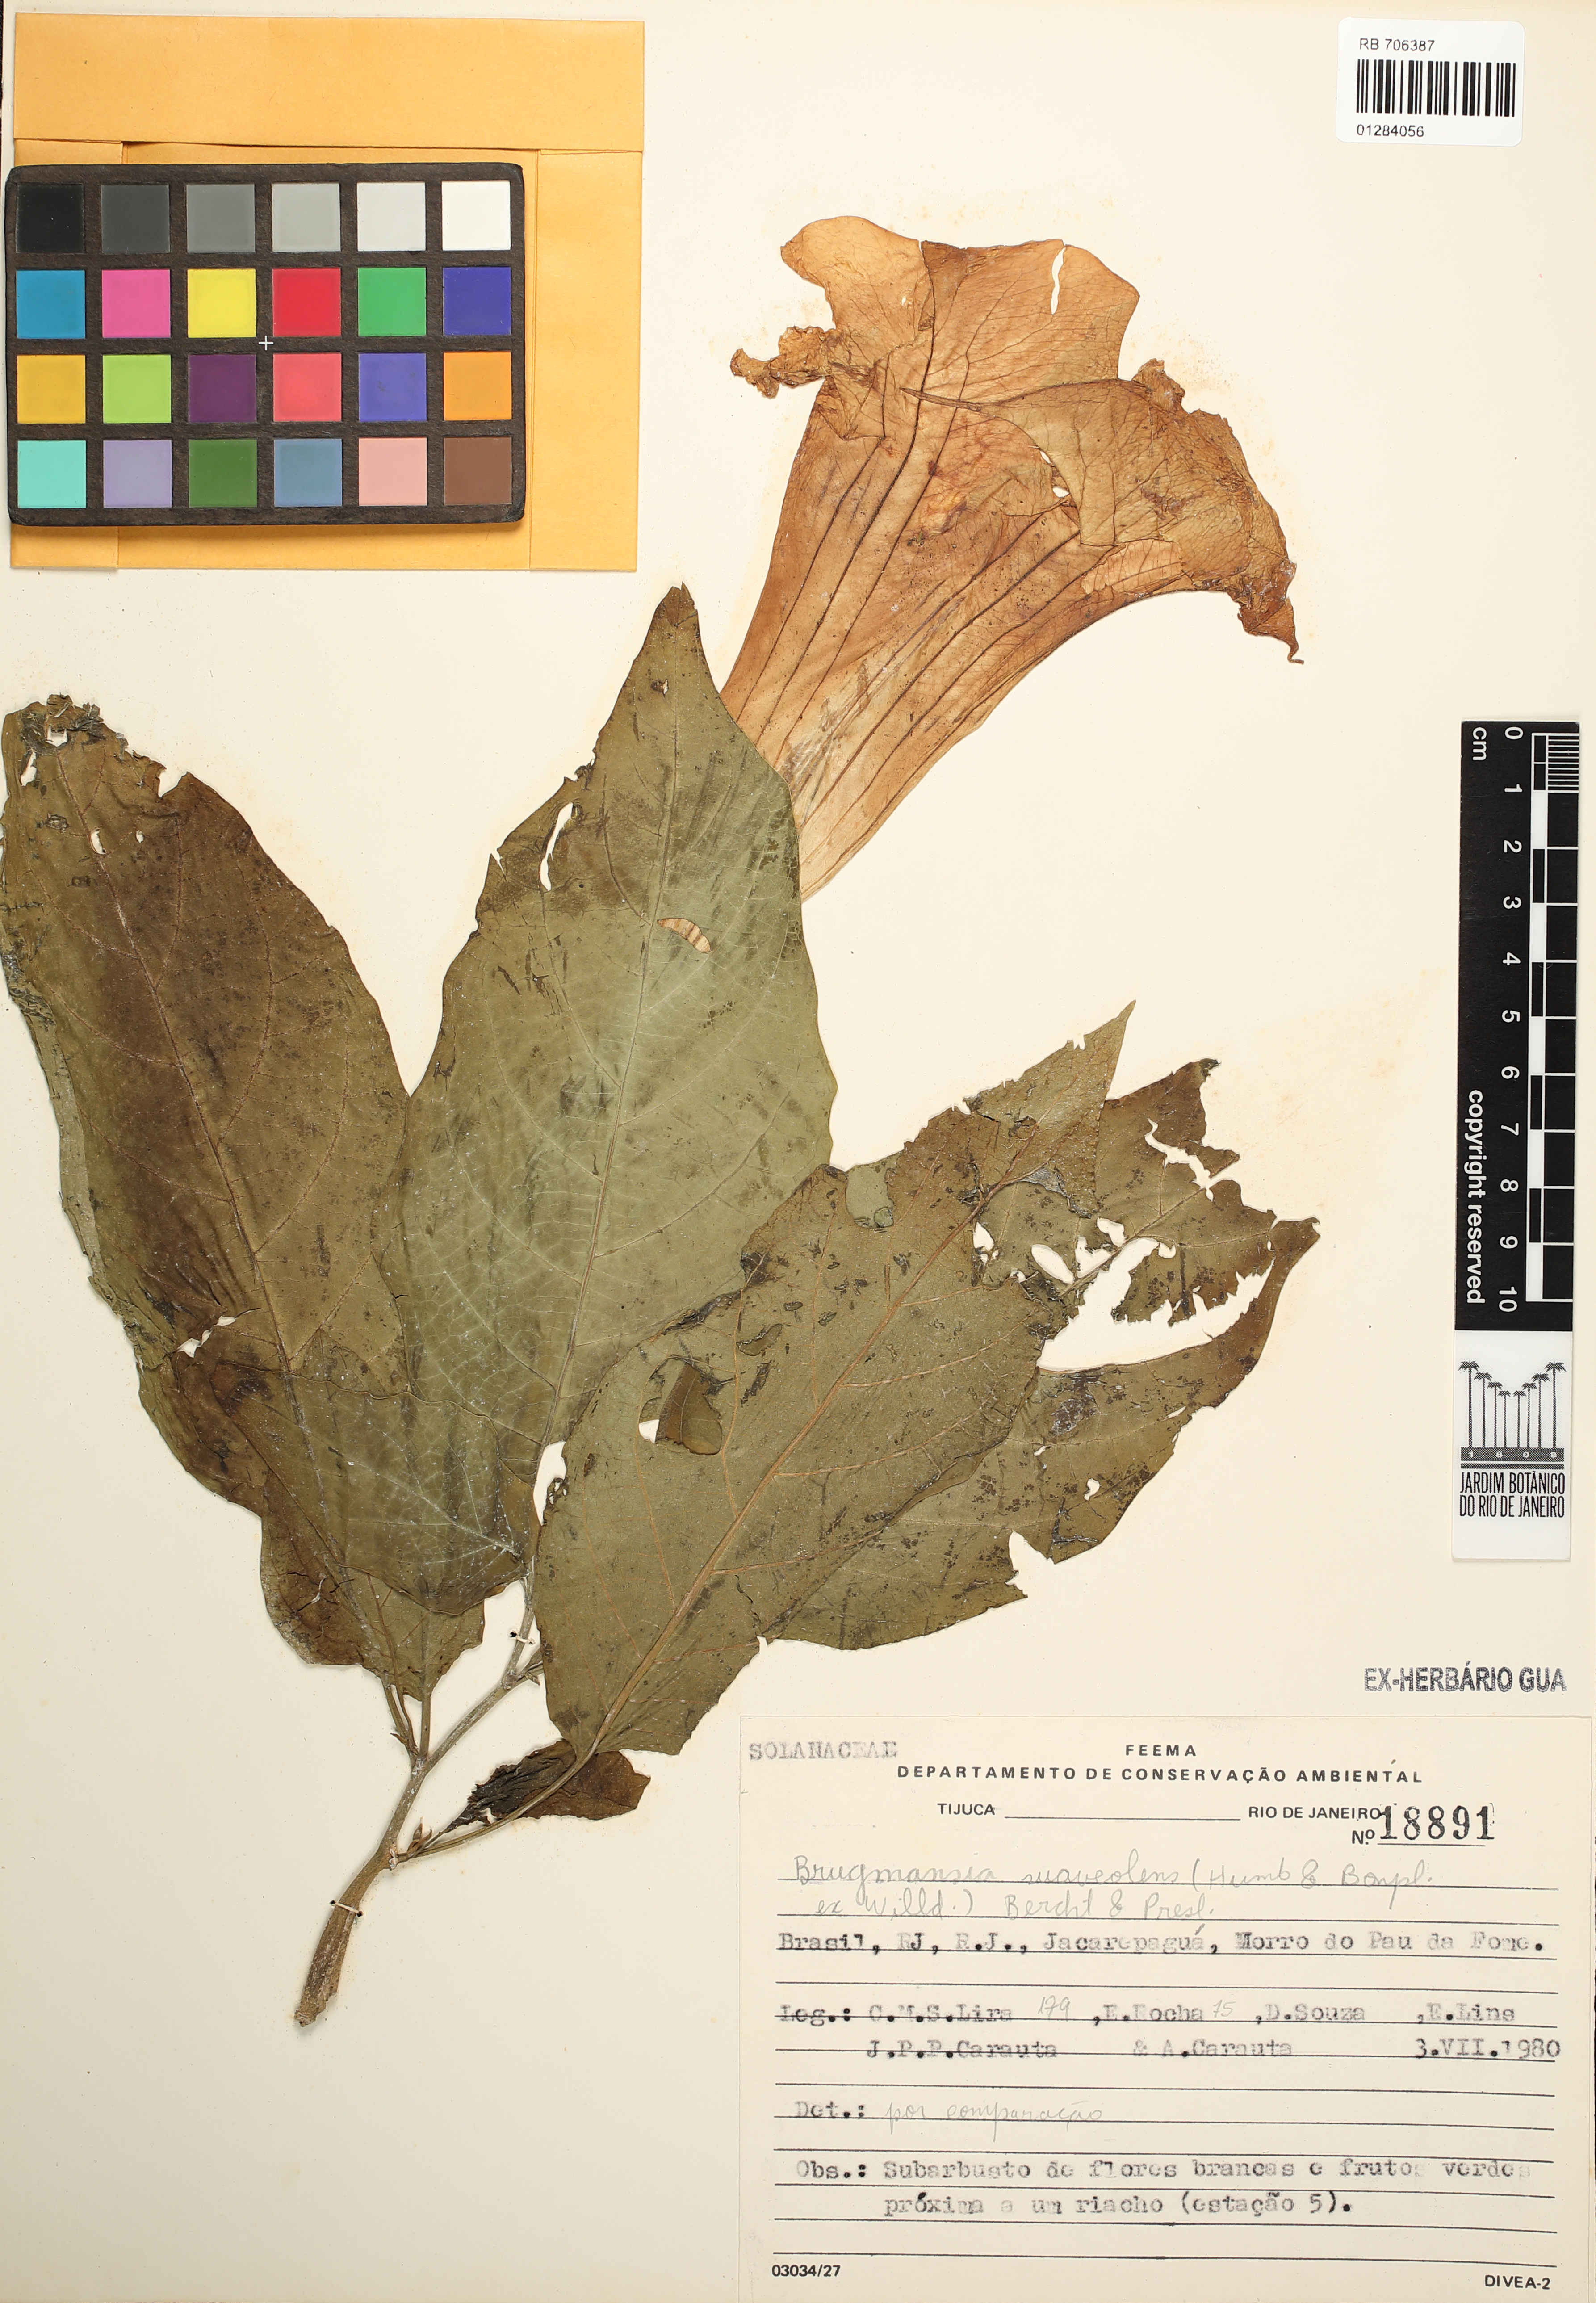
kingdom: Plantae
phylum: Tracheophyta
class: Magnoliopsida
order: Solanales
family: Solanaceae
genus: Brugmansia
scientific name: Brugmansia suaveolens
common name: Angel's tears
